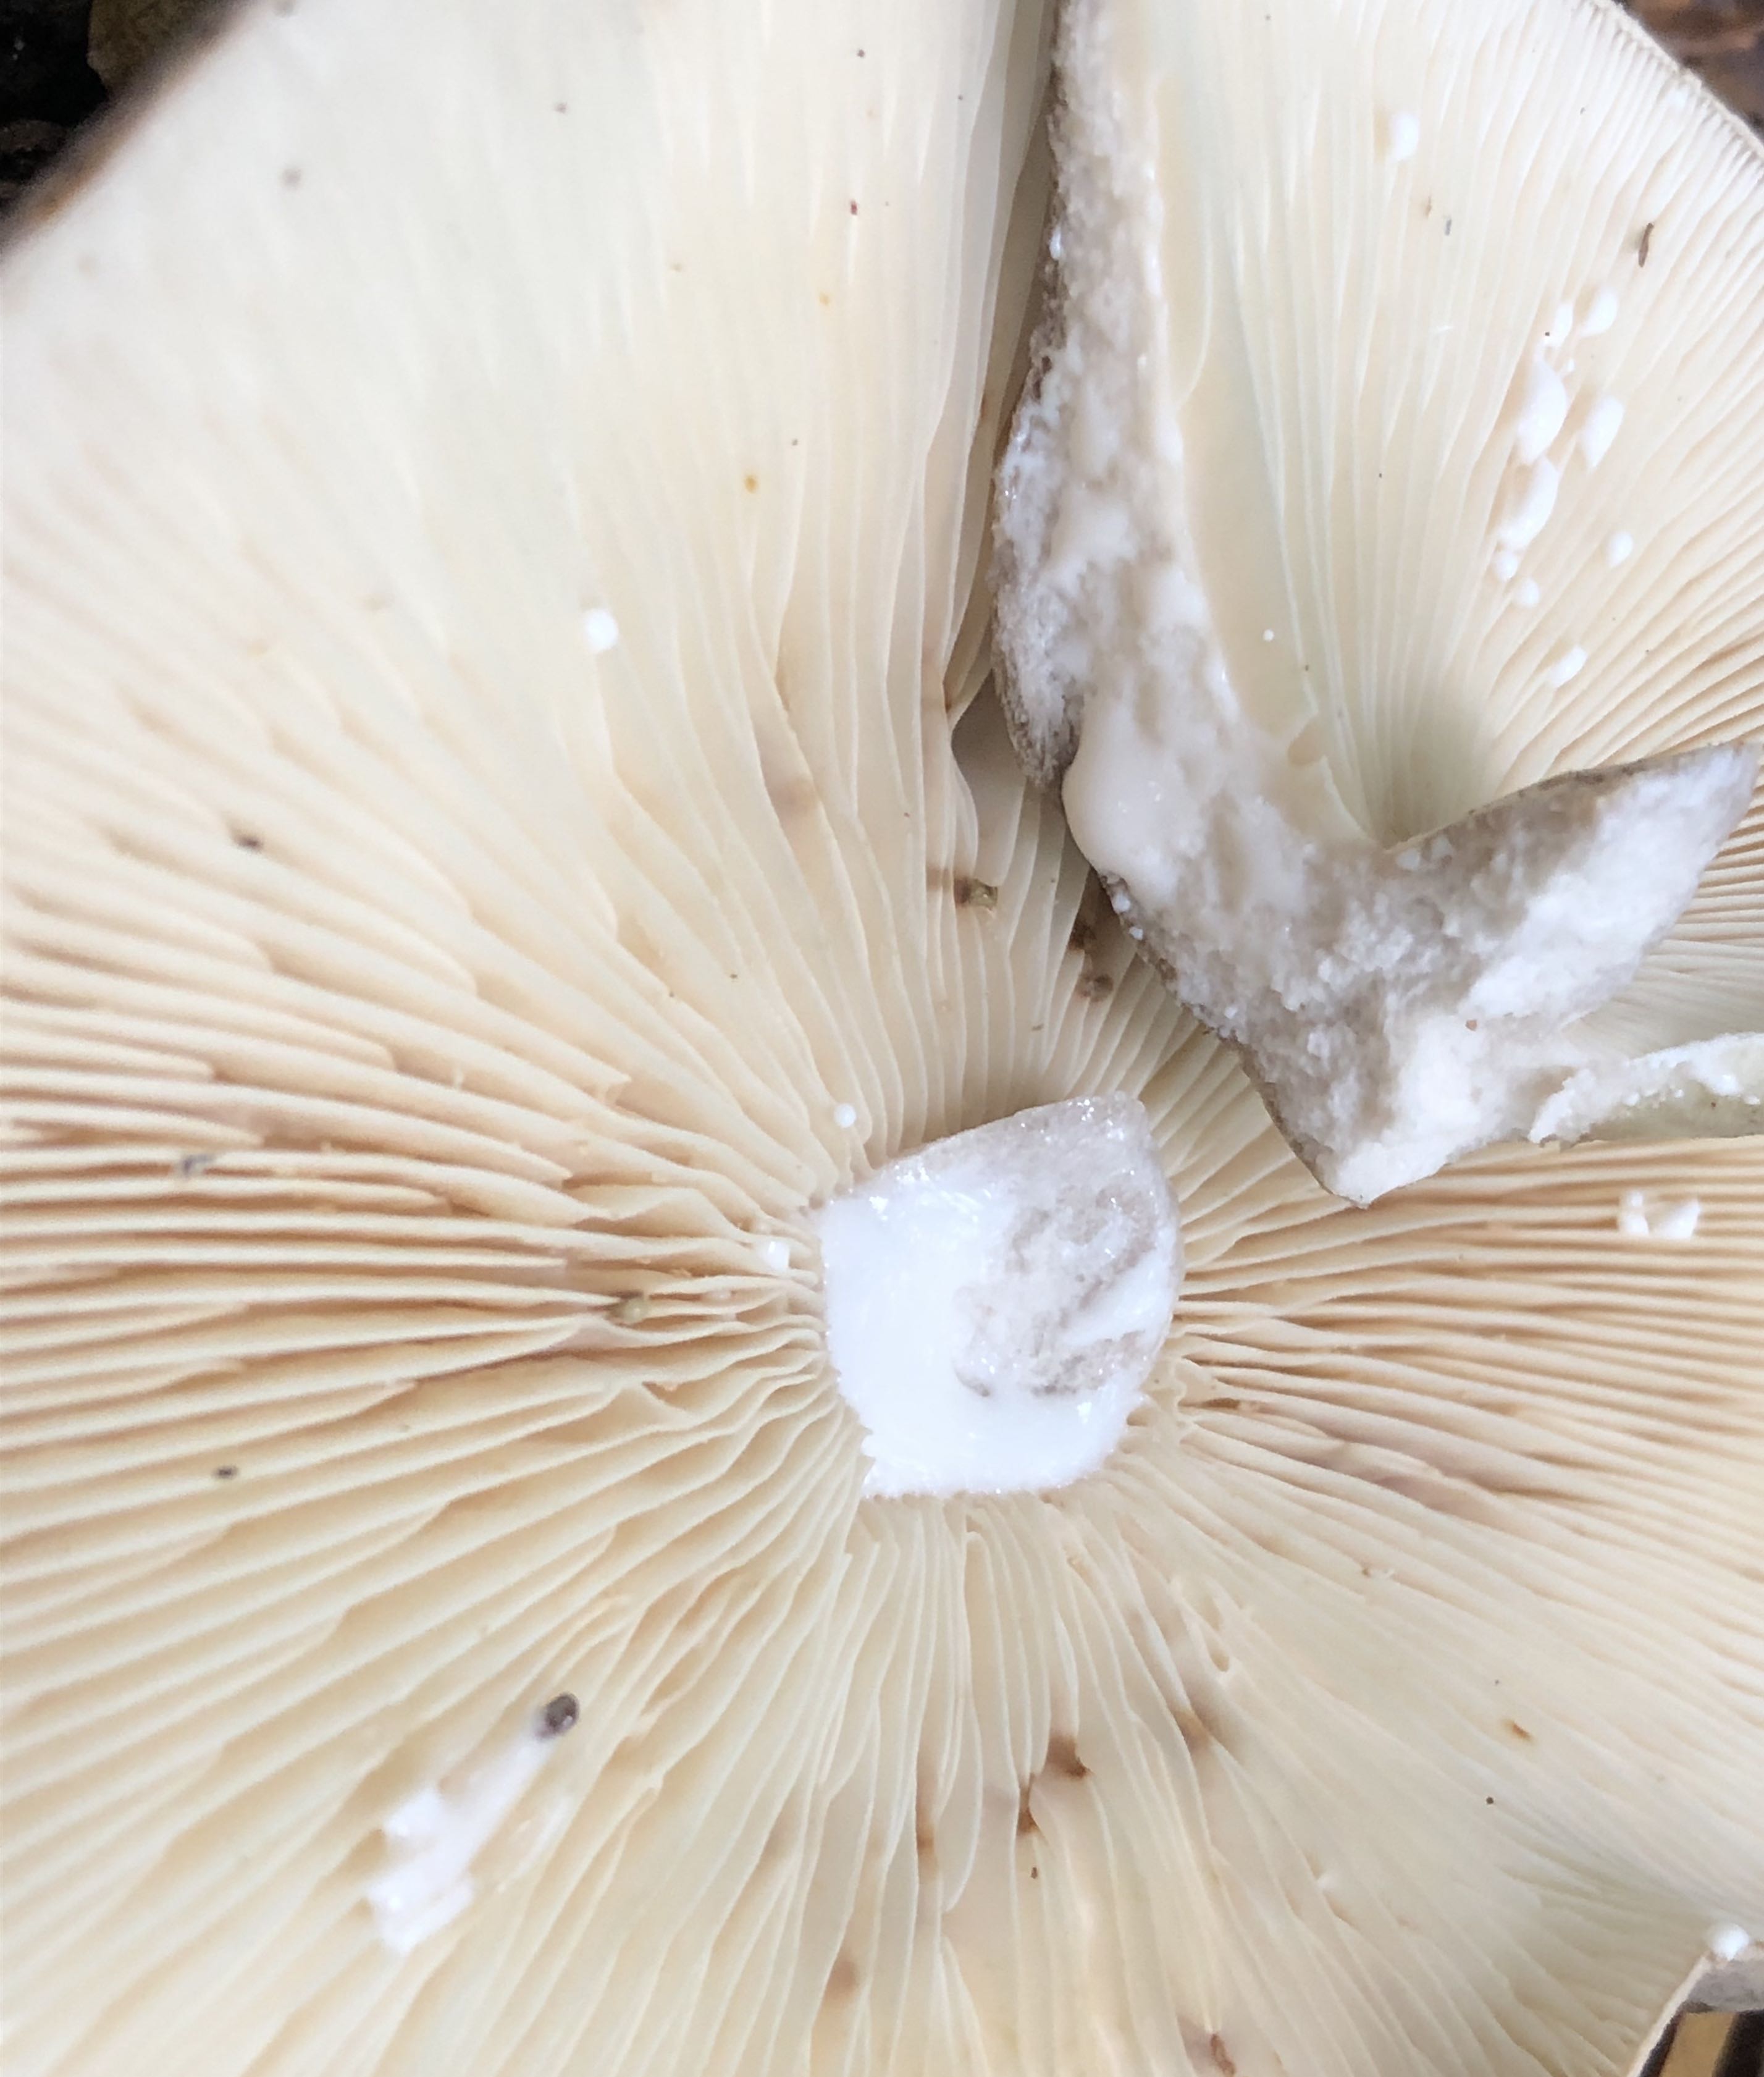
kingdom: Fungi
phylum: Basidiomycota
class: Agaricomycetes
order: Russulales
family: Russulaceae
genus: Lactarius
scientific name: Lactarius circellatus
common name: avnbøg-mælkehat
